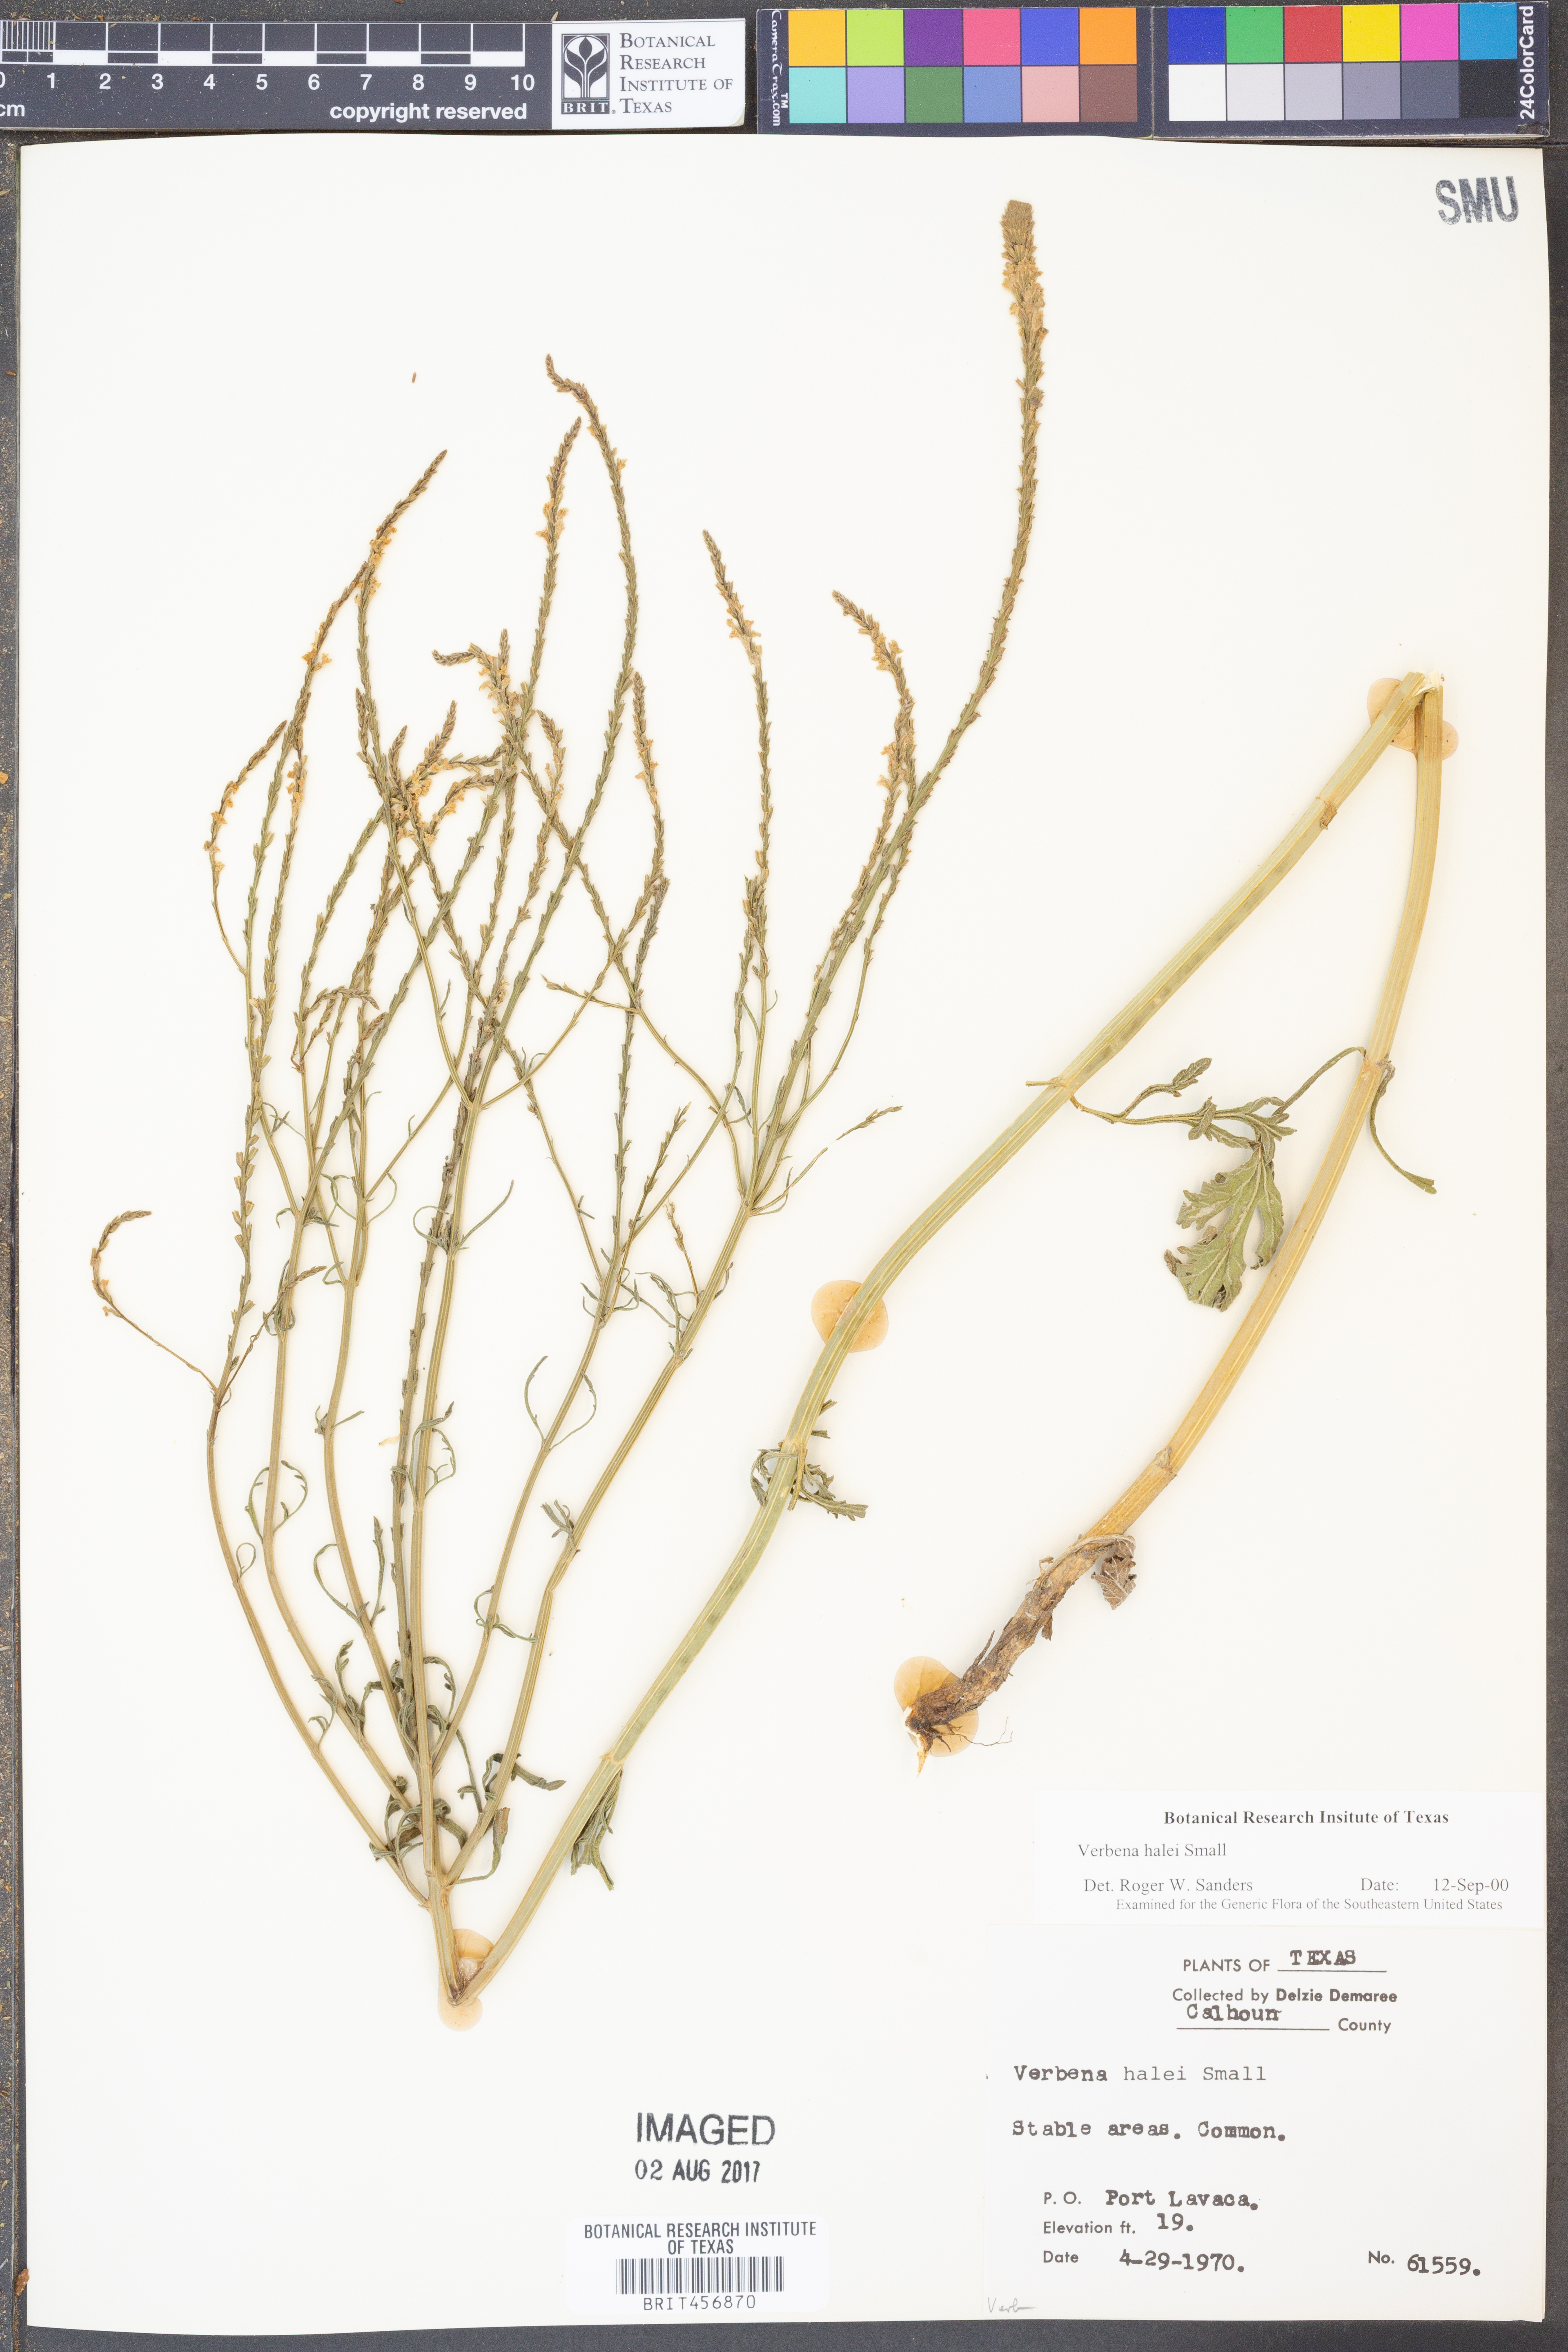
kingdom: Plantae
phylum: Tracheophyta
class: Magnoliopsida
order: Lamiales
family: Verbenaceae
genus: Verbena
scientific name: Verbena halei
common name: Texas vervain
